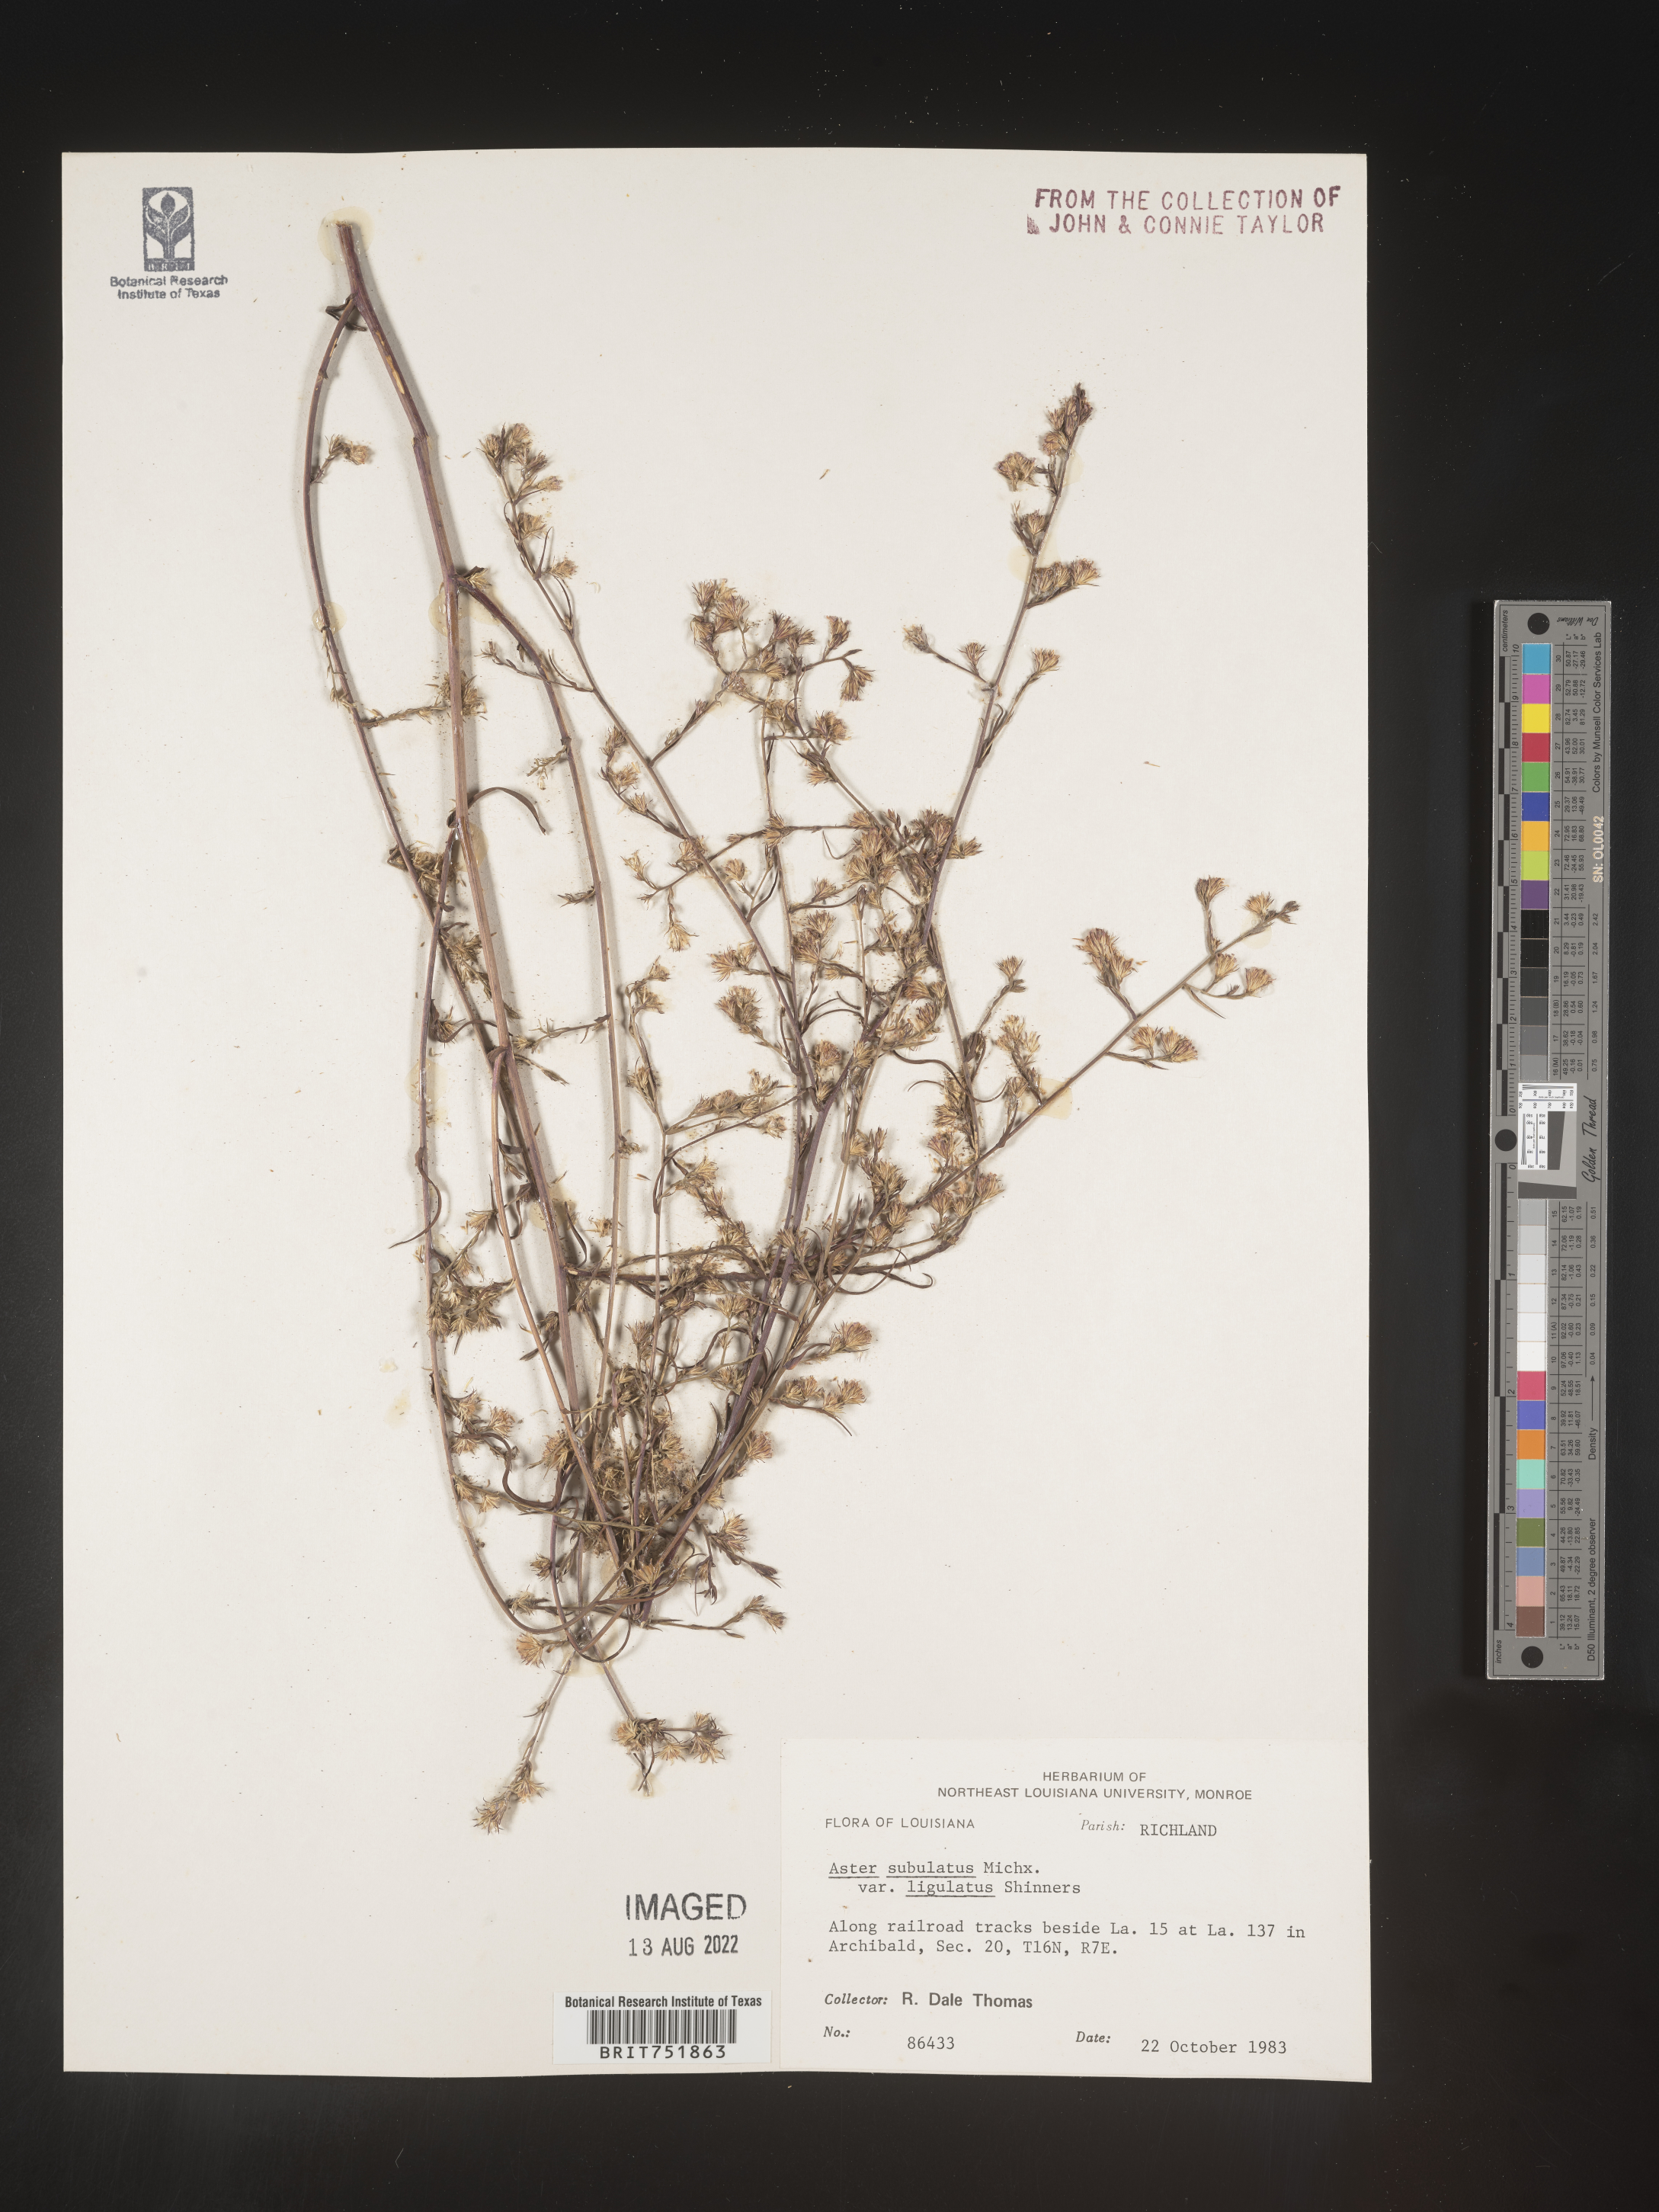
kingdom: Plantae
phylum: Tracheophyta
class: Magnoliopsida
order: Asterales
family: Asteraceae
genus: Symphyotrichum
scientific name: Symphyotrichum divaricatum
